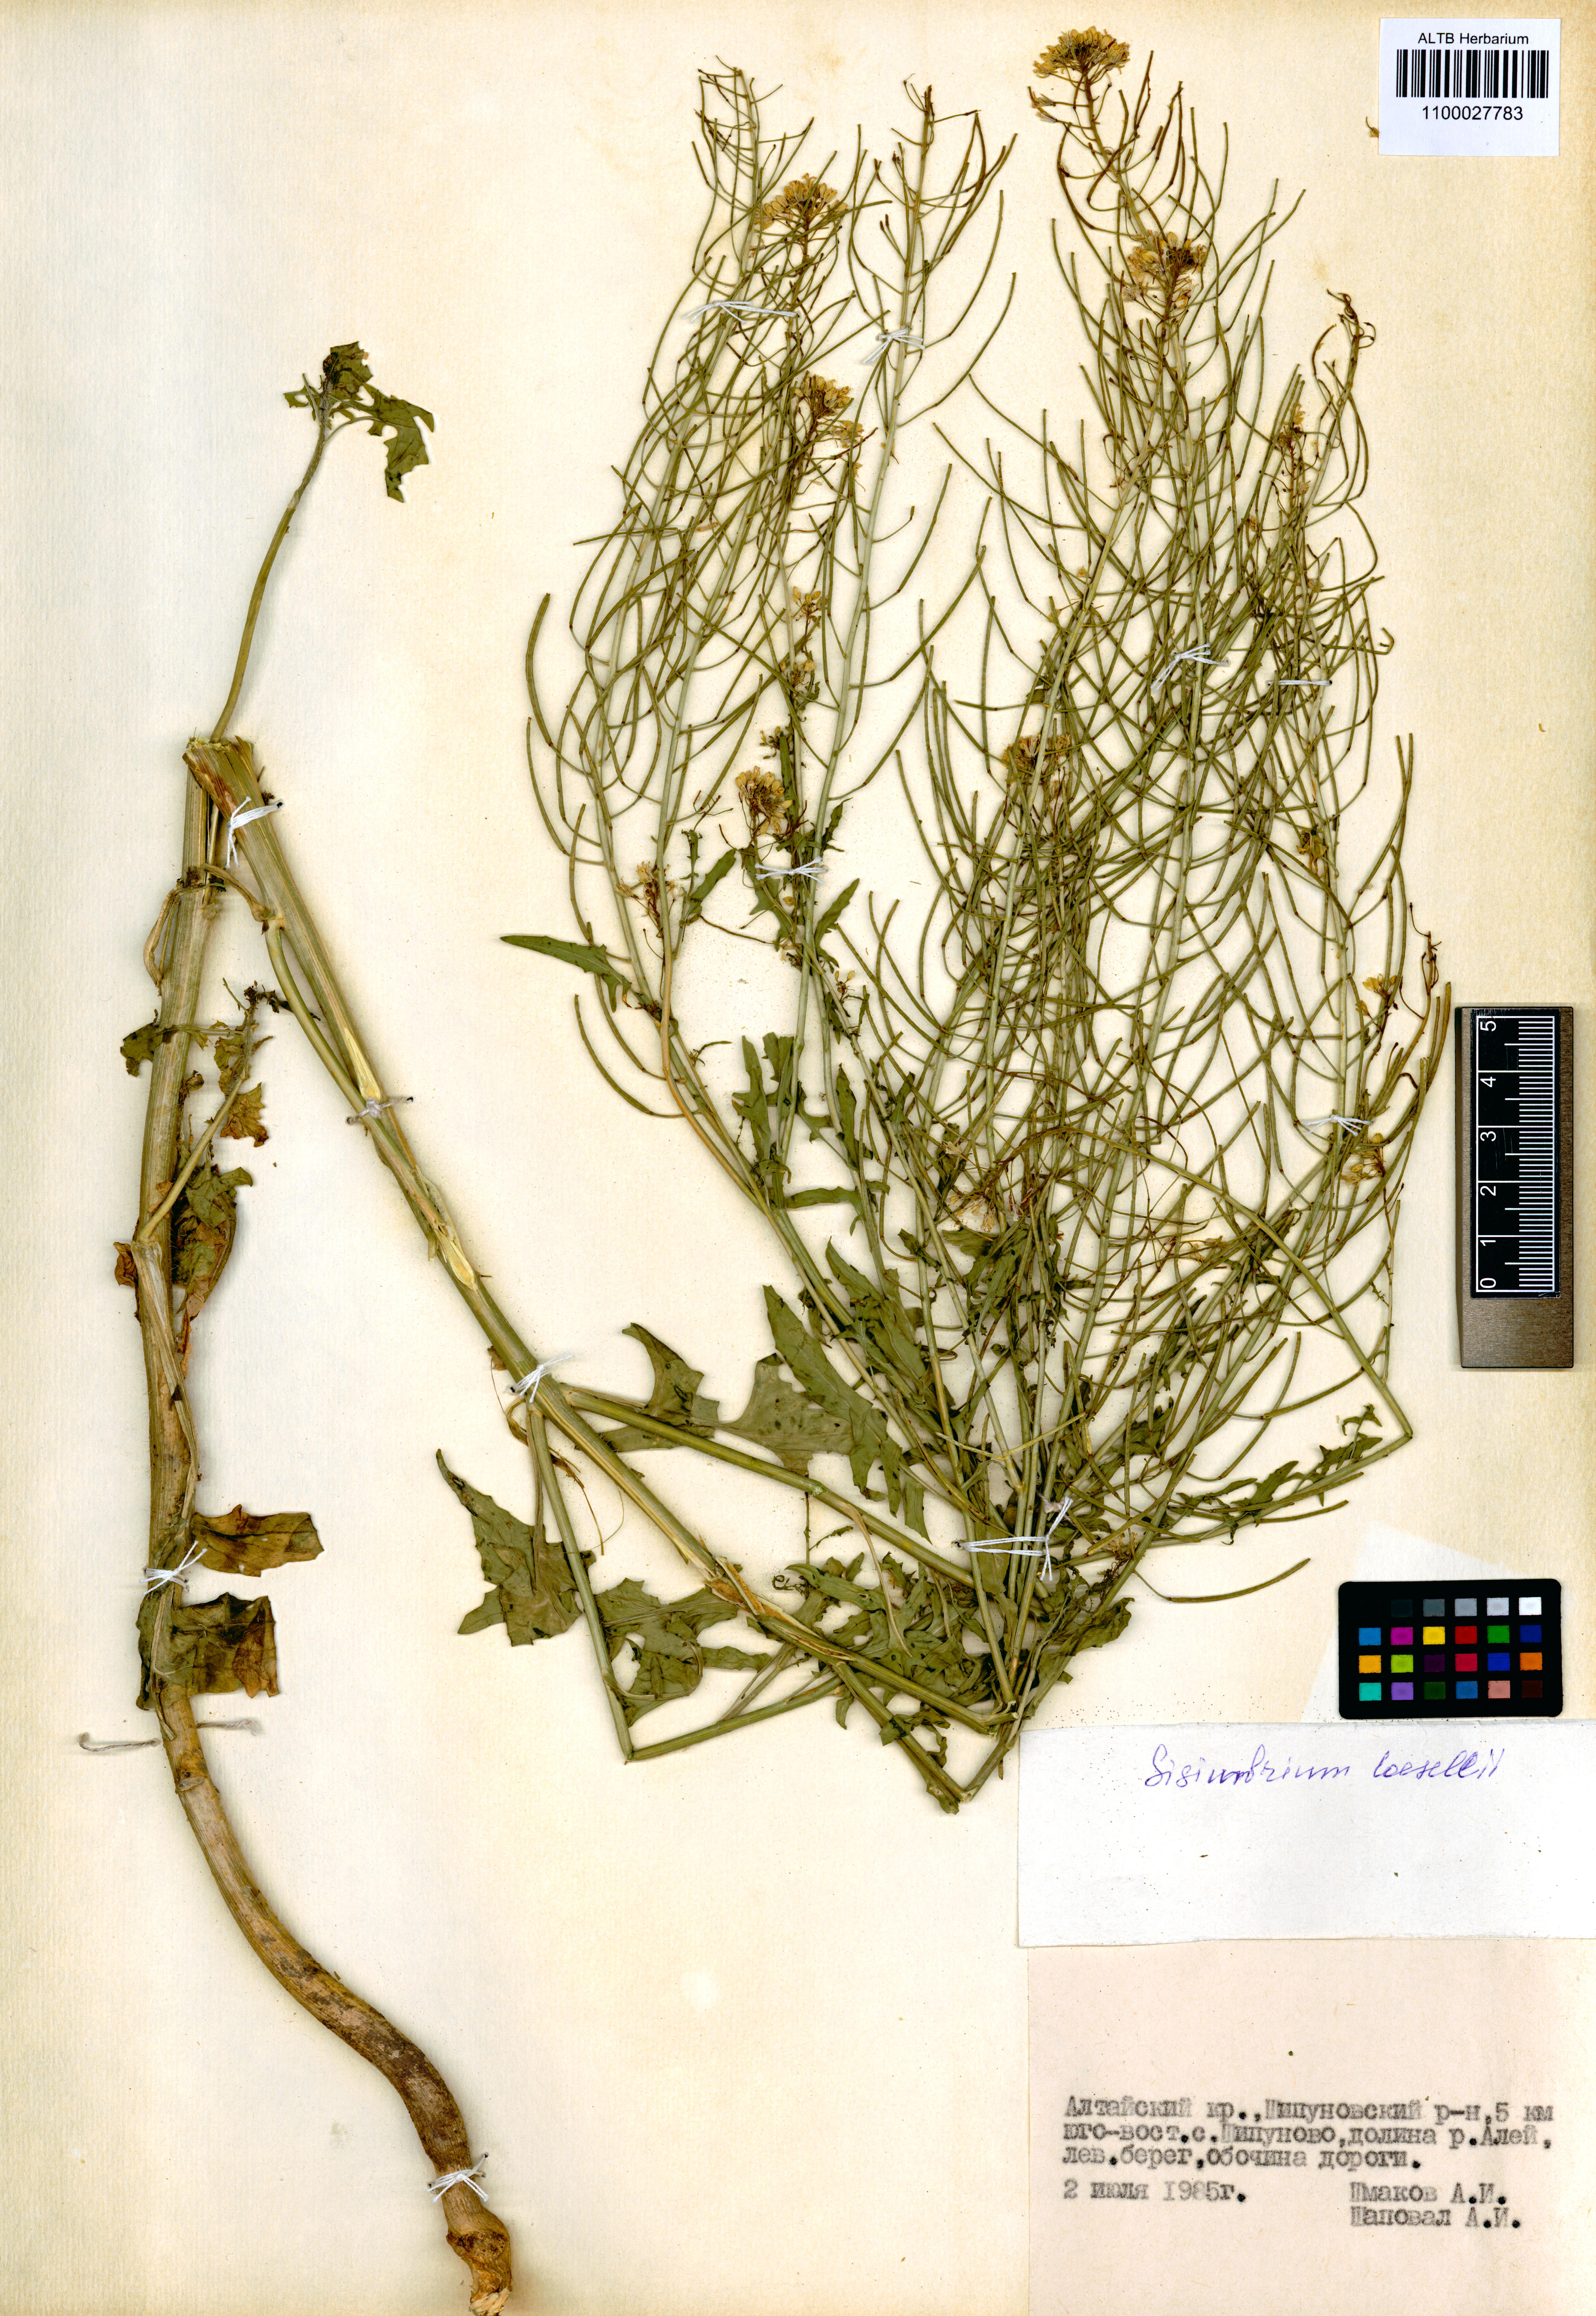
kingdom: Plantae
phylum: Tracheophyta
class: Magnoliopsida
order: Brassicales
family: Brassicaceae
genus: Sisymbrium
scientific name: Sisymbrium loeselii
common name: False london-rocket
